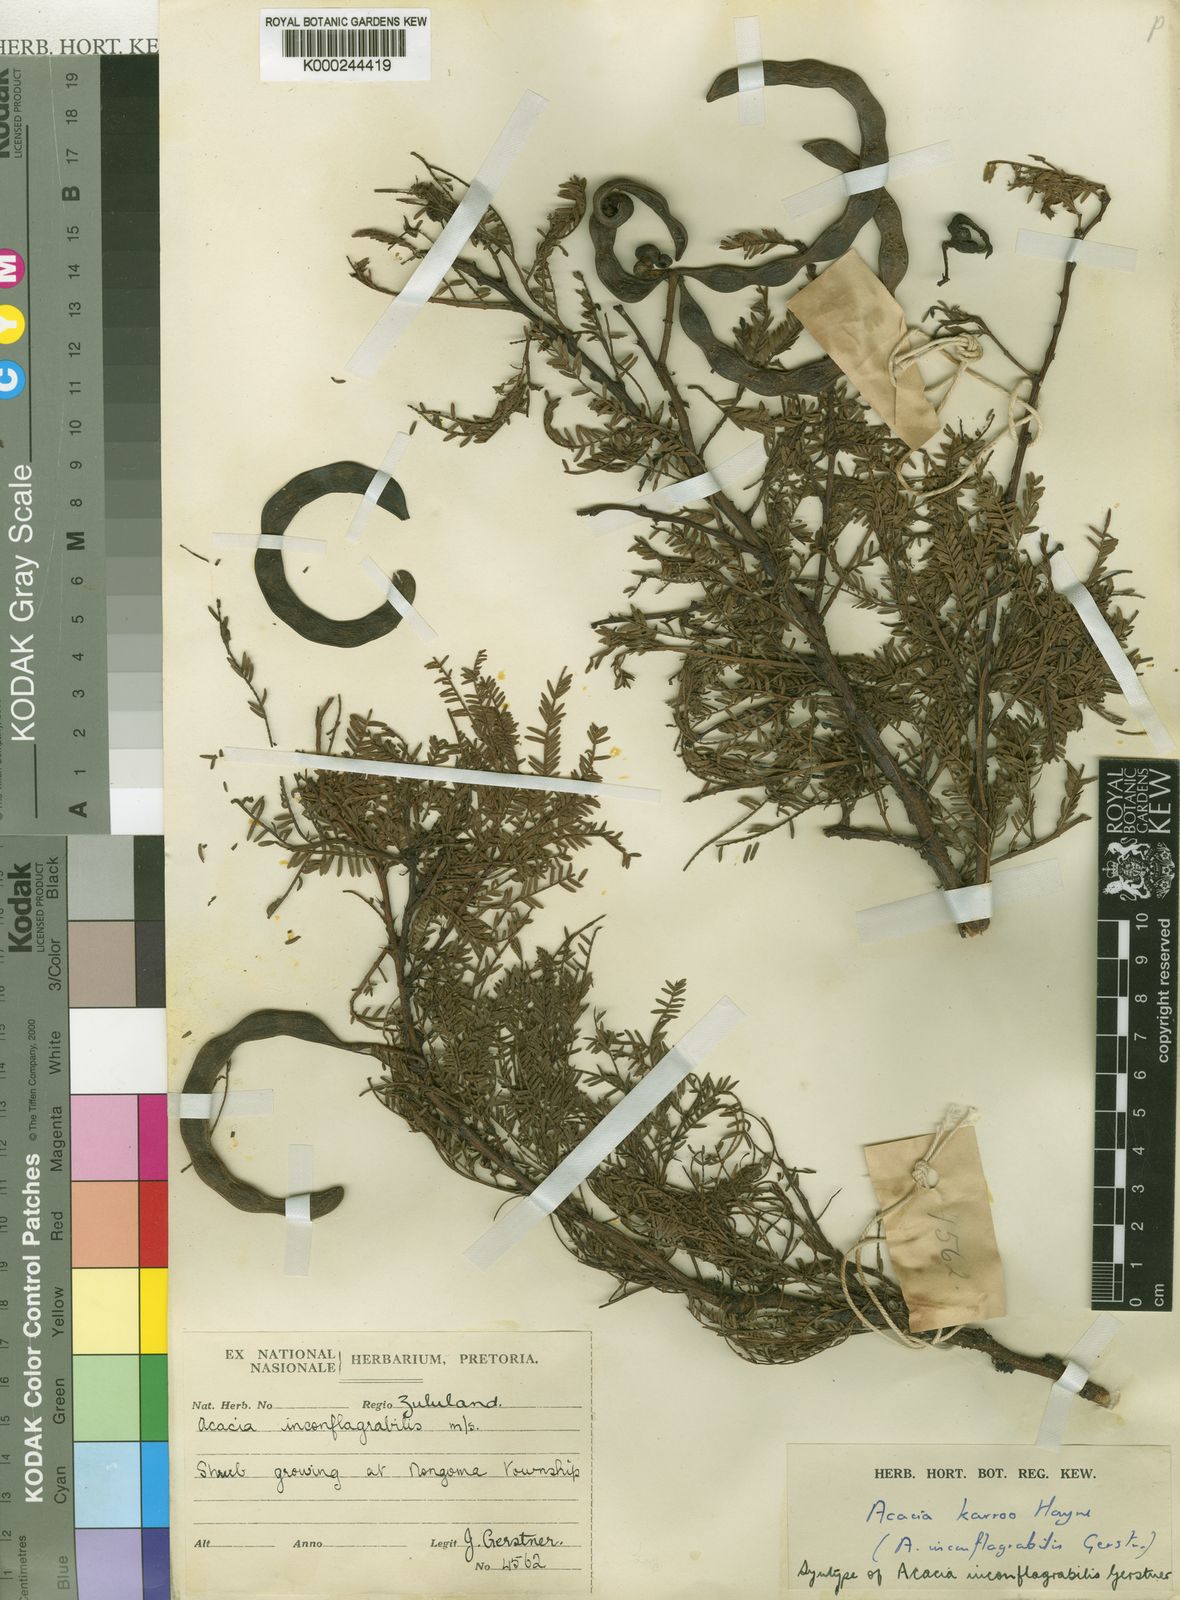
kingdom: Plantae
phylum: Tracheophyta
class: Magnoliopsida
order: Fabales
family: Fabaceae
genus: Vachellia
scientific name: Vachellia karroo
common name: Sweet thorn
